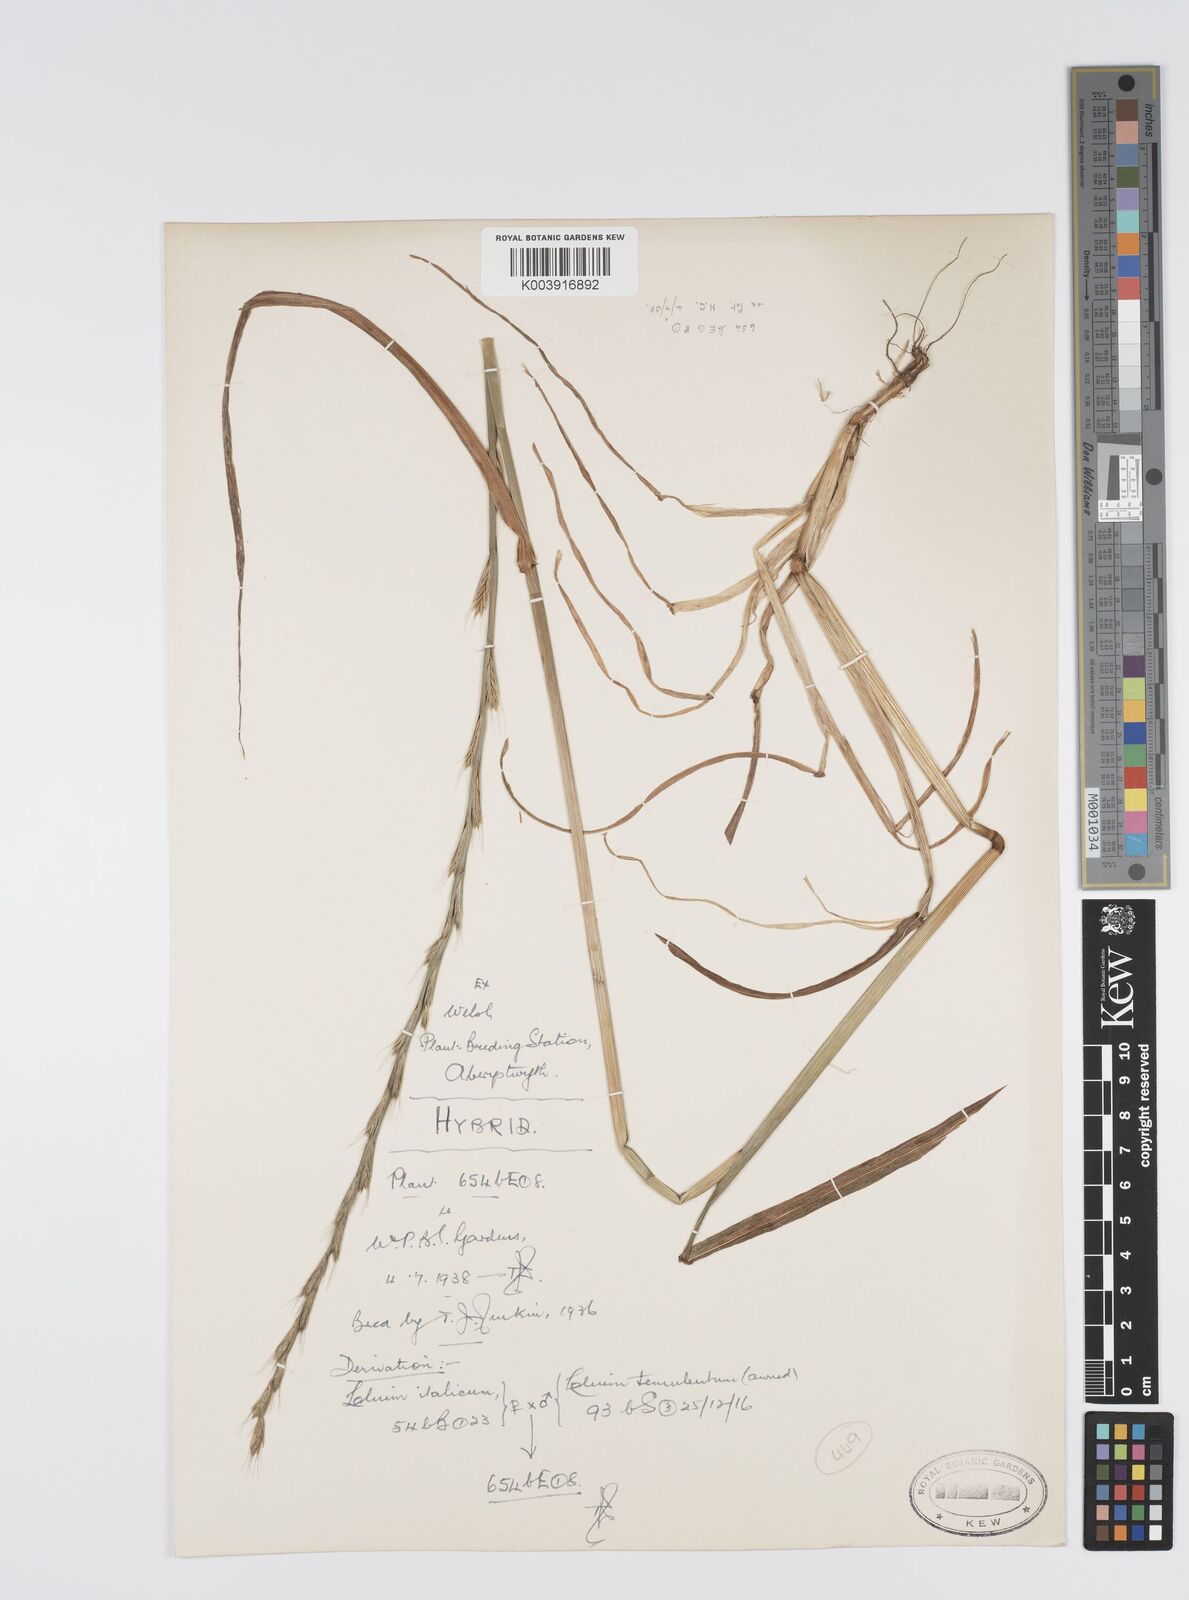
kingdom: Plantae
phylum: Tracheophyta
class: Liliopsida
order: Poales
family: Poaceae
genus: Lolium
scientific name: Lolium multiflorum
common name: Annual ryegrass
